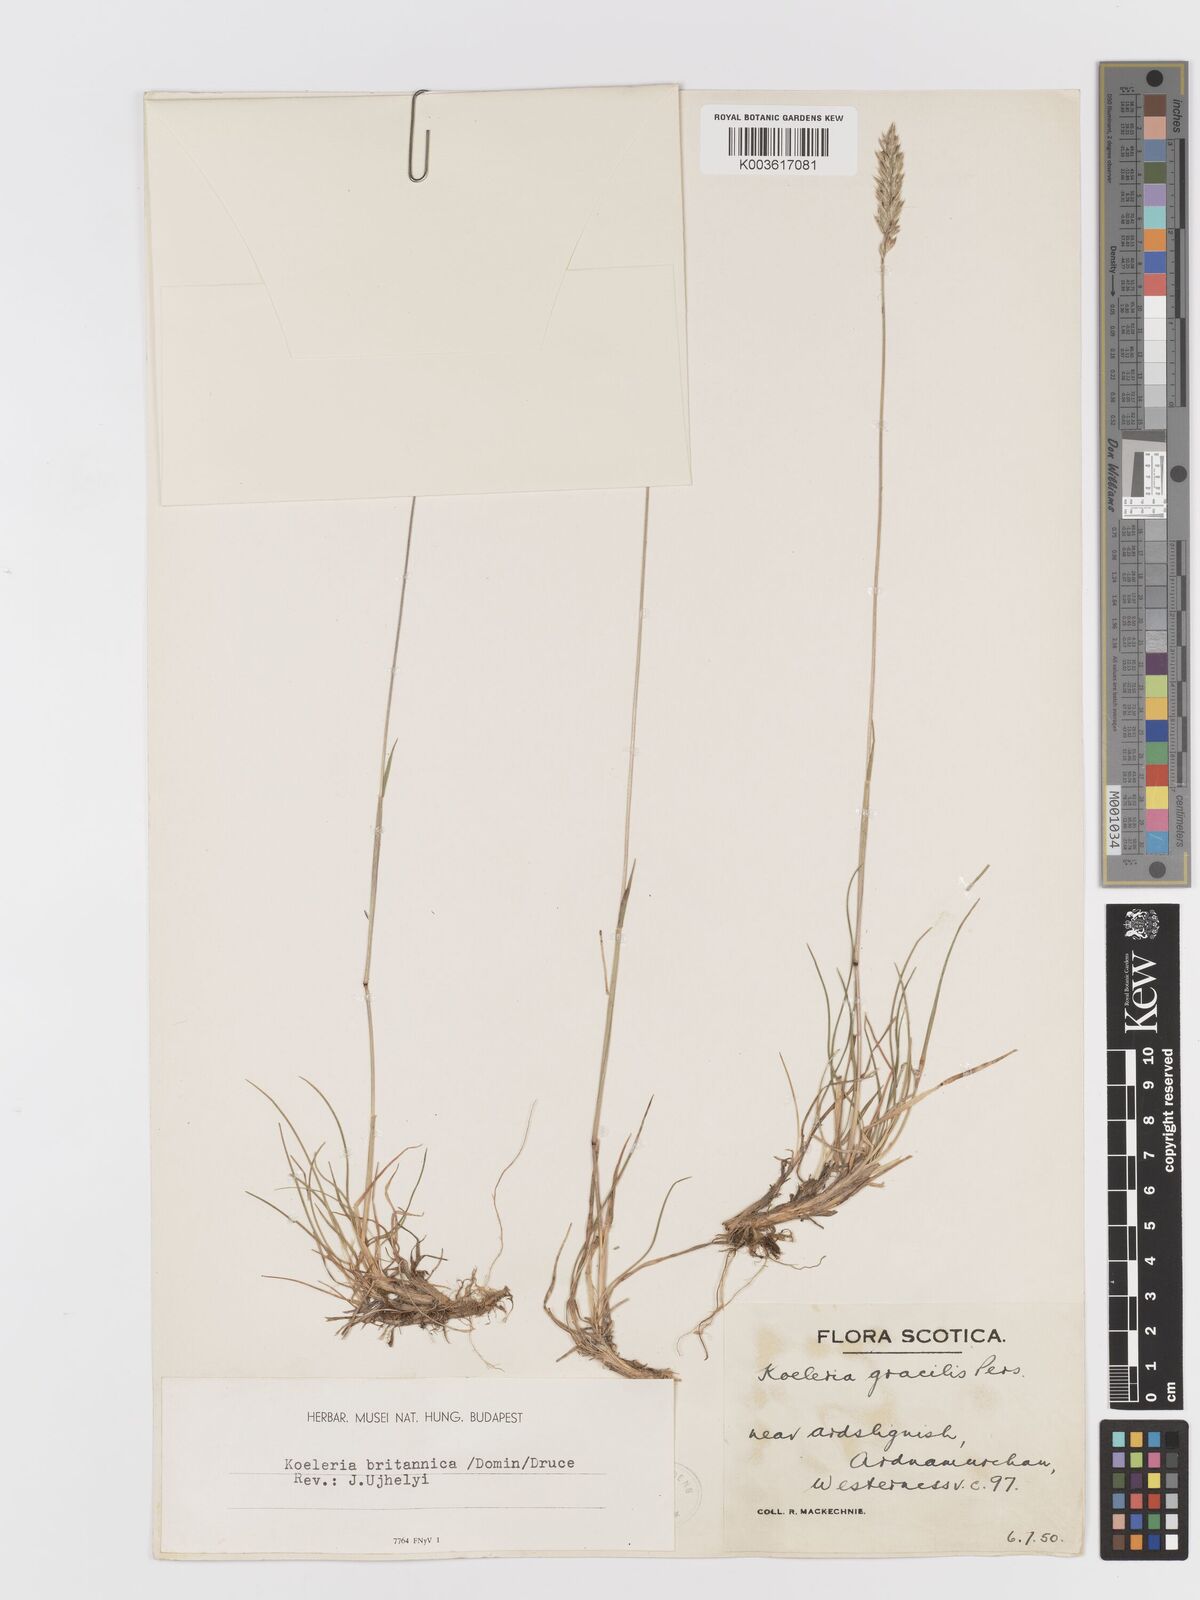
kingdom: Plantae
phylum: Tracheophyta
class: Liliopsida
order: Poales
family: Poaceae
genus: Koeleria
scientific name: Koeleria nitidula
